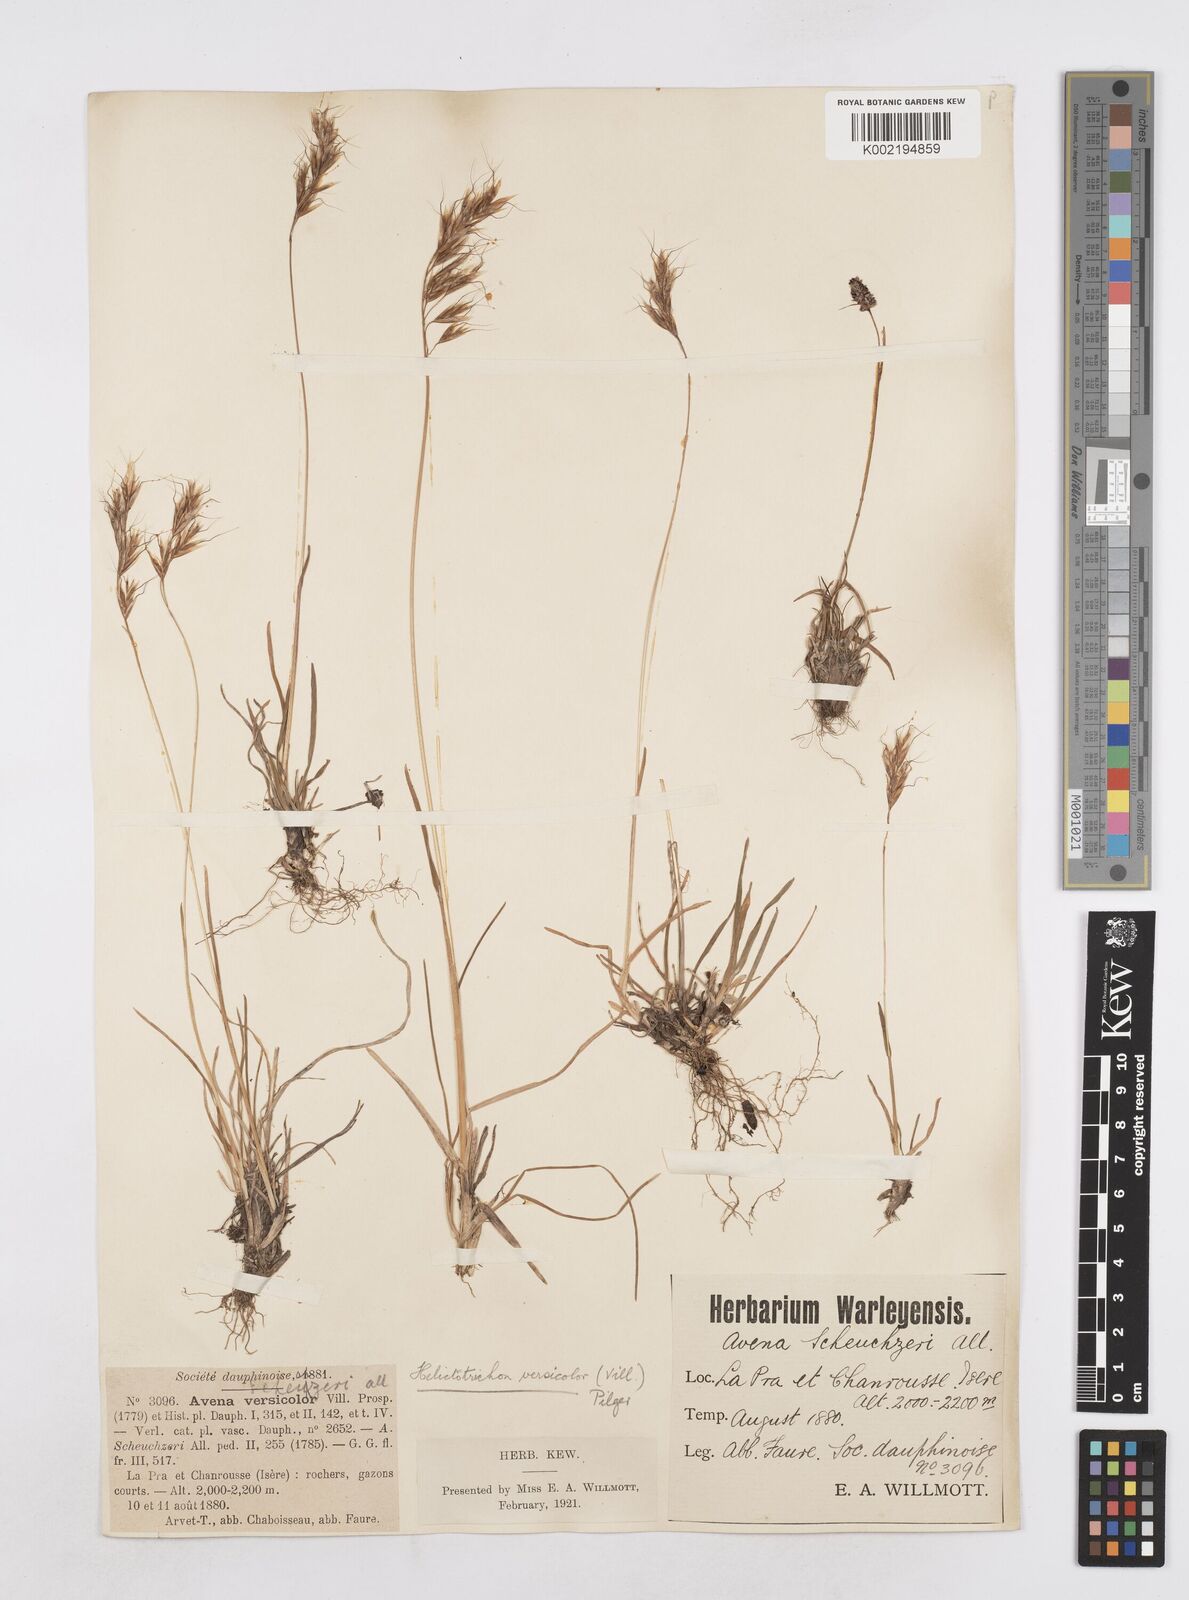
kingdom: Plantae
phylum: Tracheophyta
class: Liliopsida
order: Poales
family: Poaceae
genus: Helictochloa
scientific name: Helictochloa versicolor
